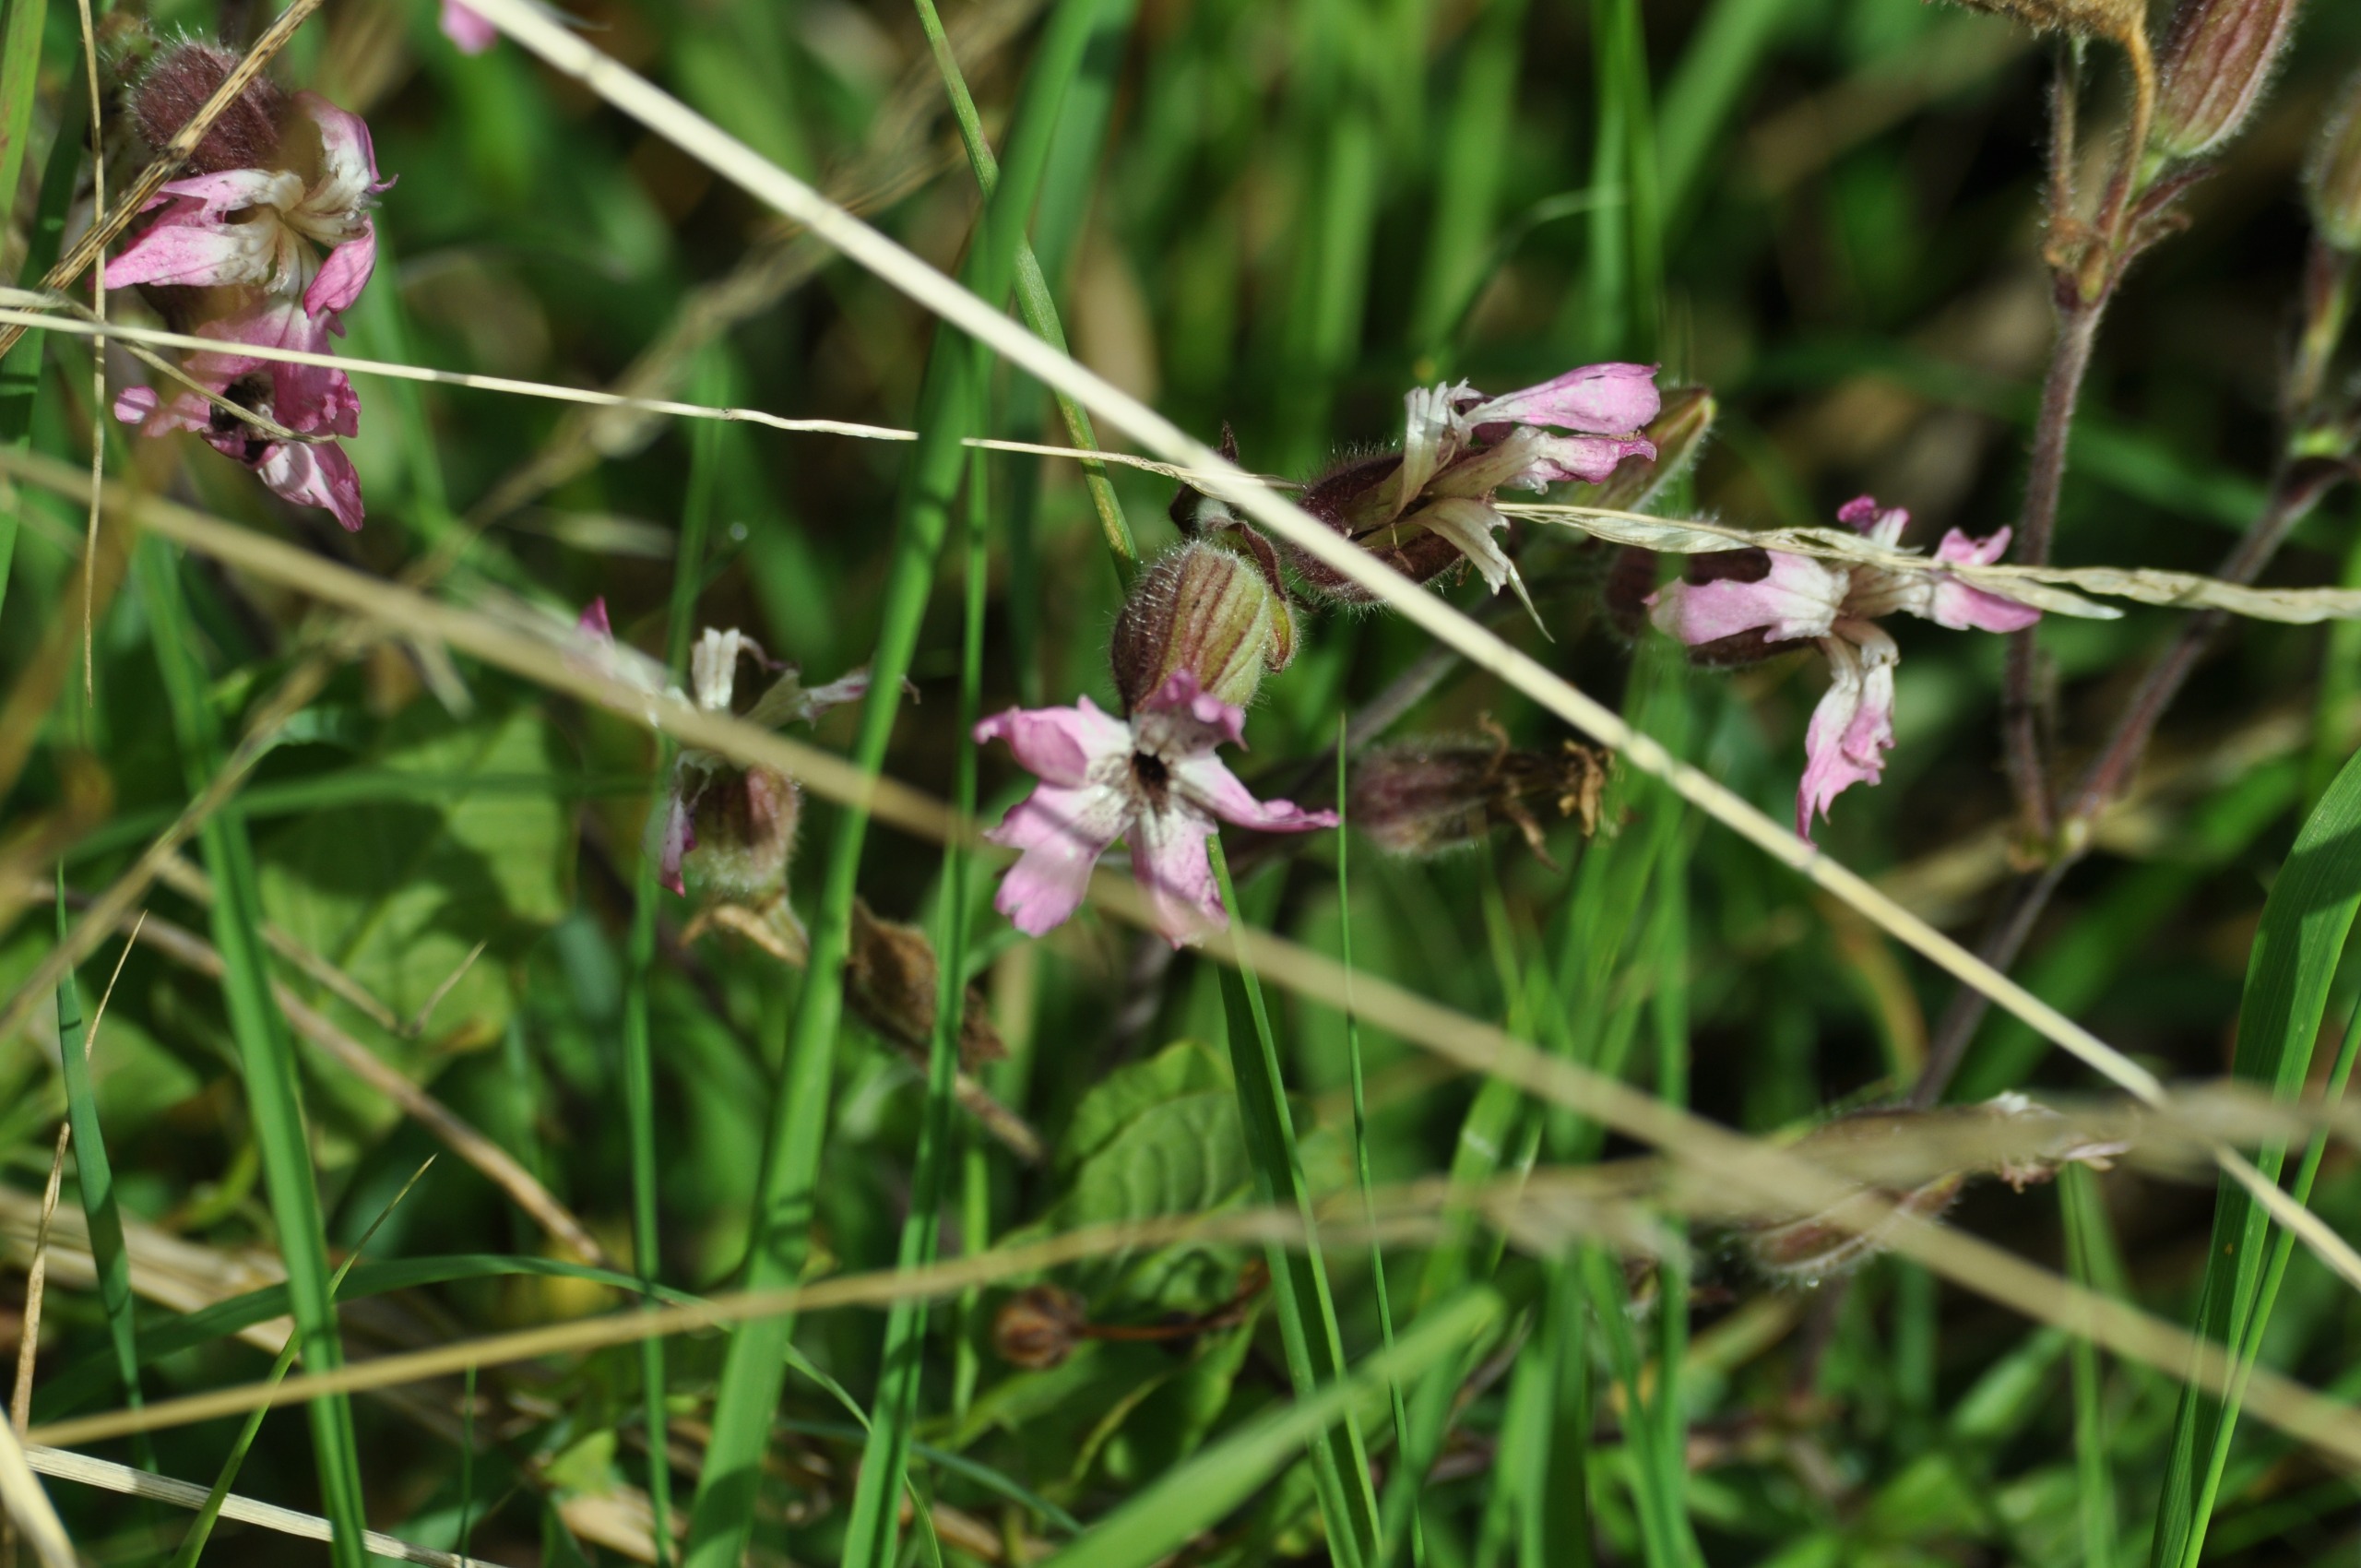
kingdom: Plantae
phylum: Tracheophyta
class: Magnoliopsida
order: Caryophyllales
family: Caryophyllaceae
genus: Silene
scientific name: Silene
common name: Dagpragtstjerne × aftenpragtstjerne
